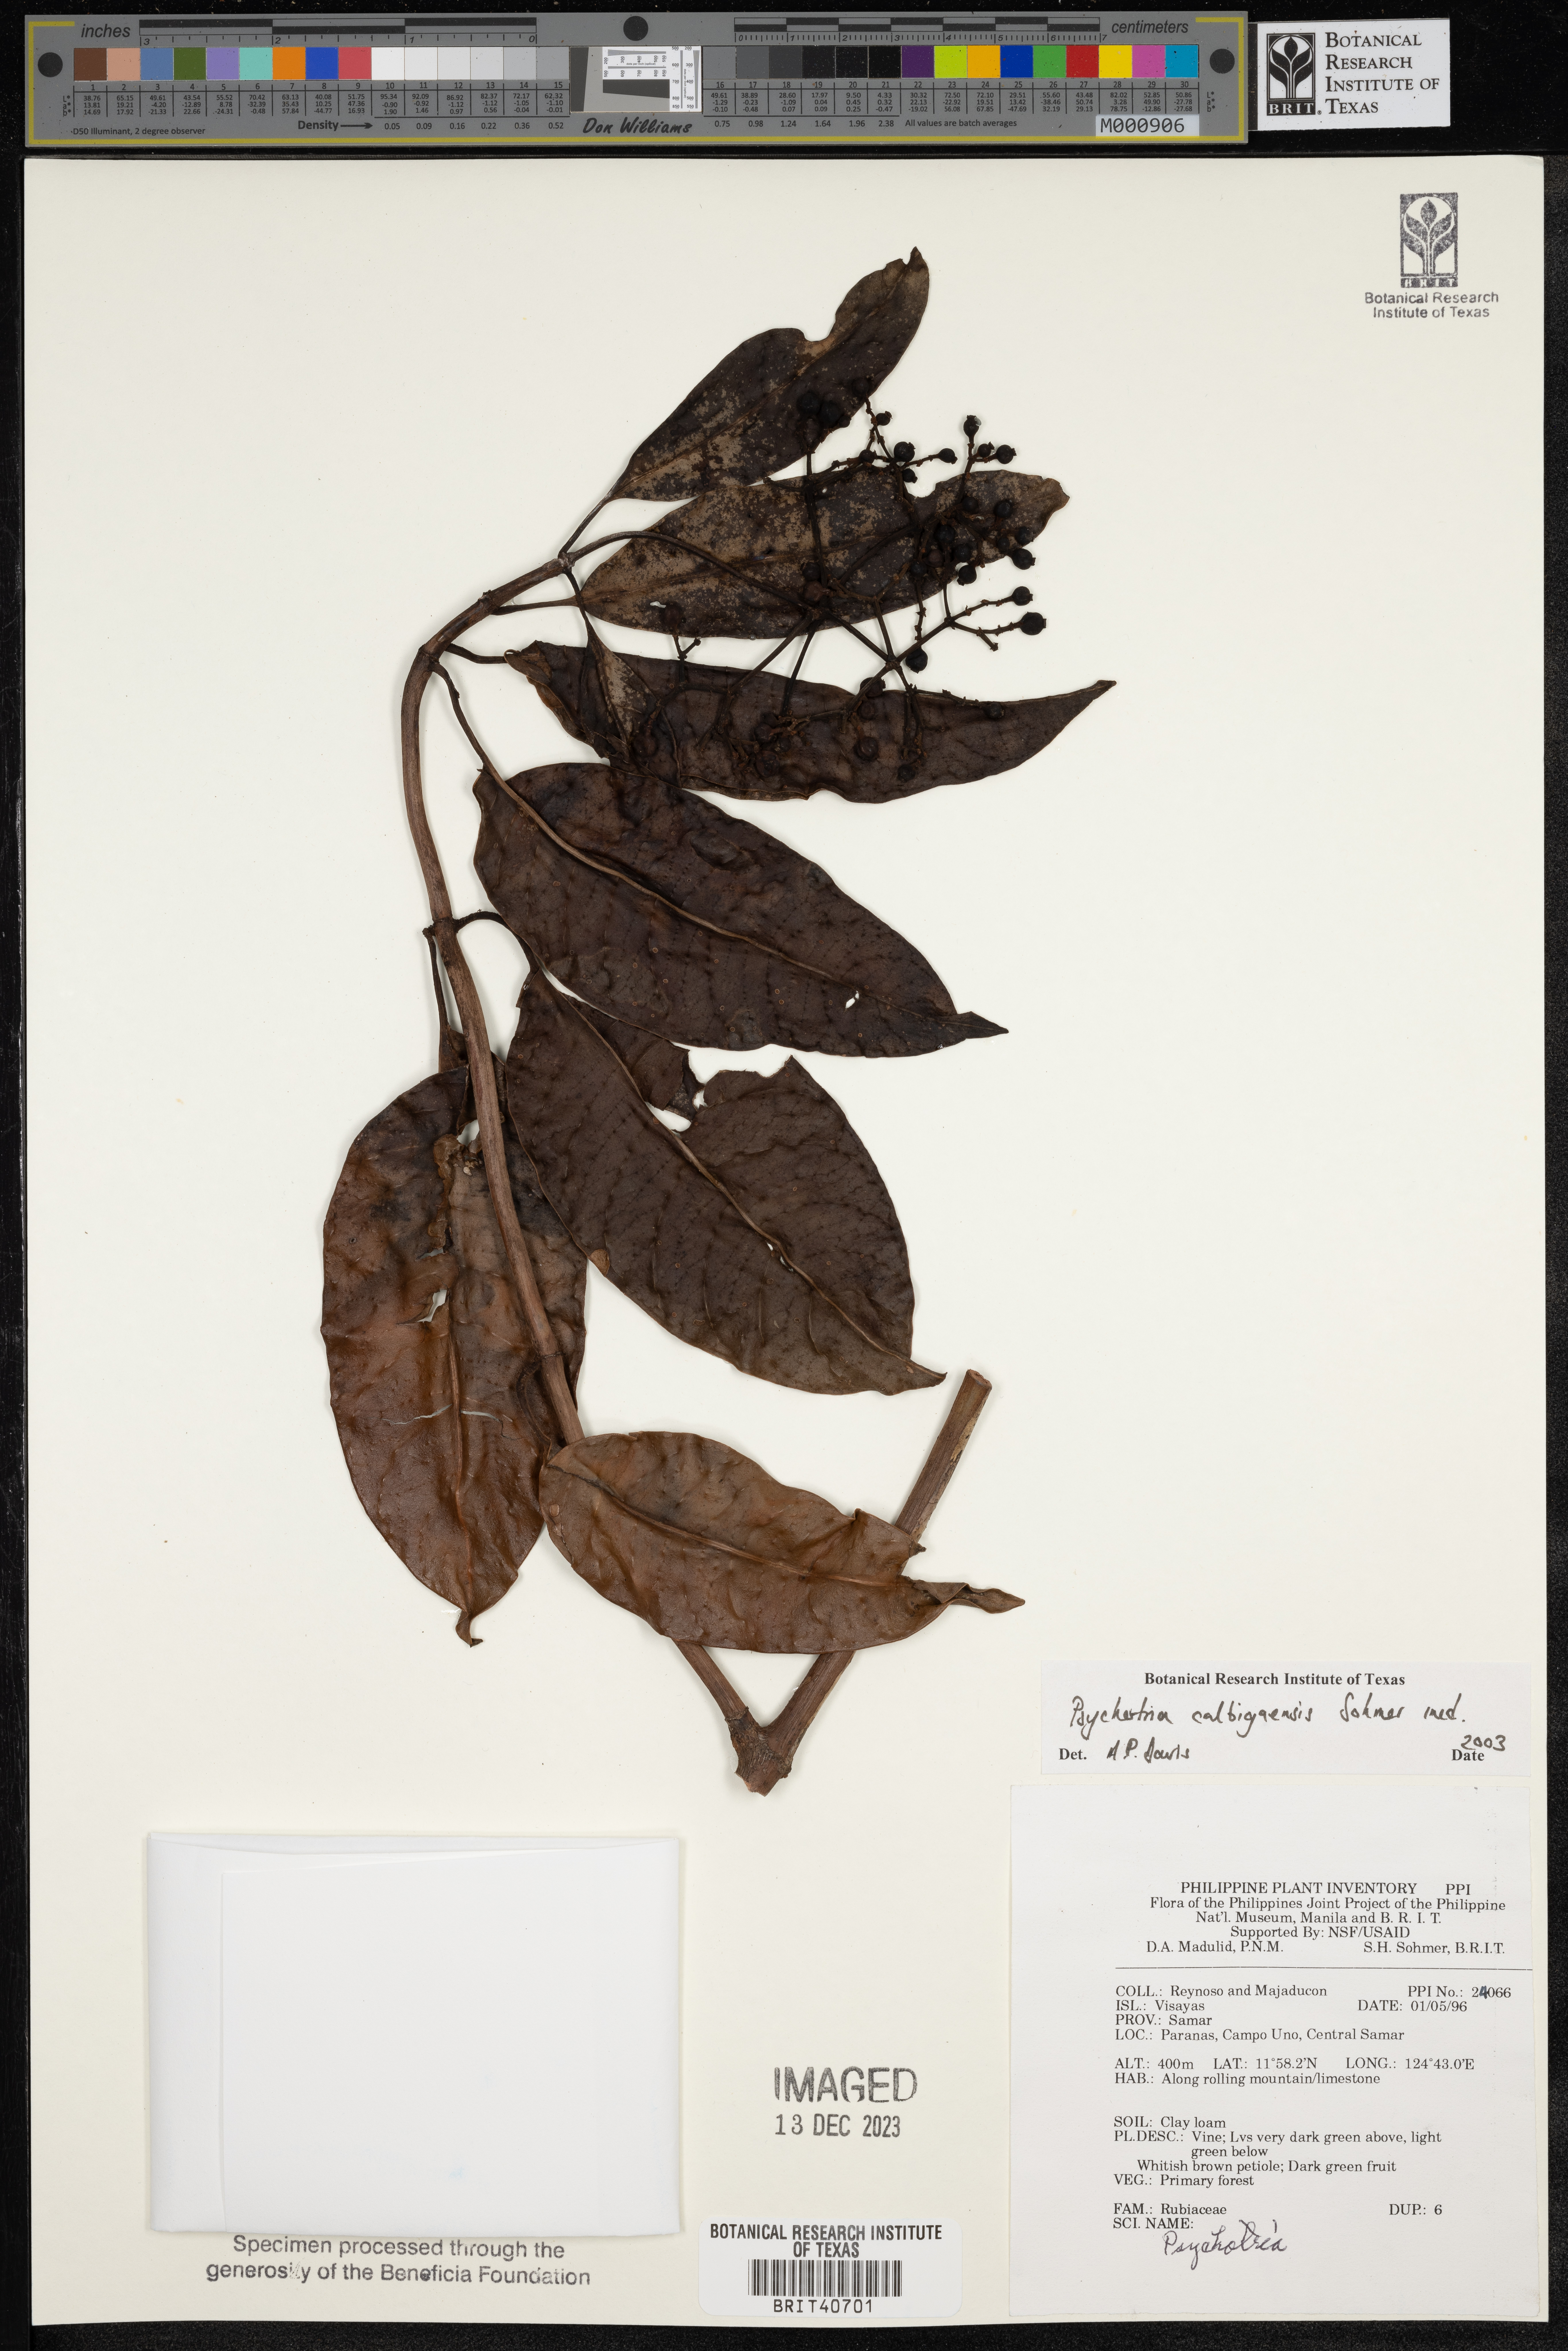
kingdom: Plantae
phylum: Tracheophyta
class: Magnoliopsida
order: Gentianales
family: Rubiaceae
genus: Psychotria
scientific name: Psychotria
